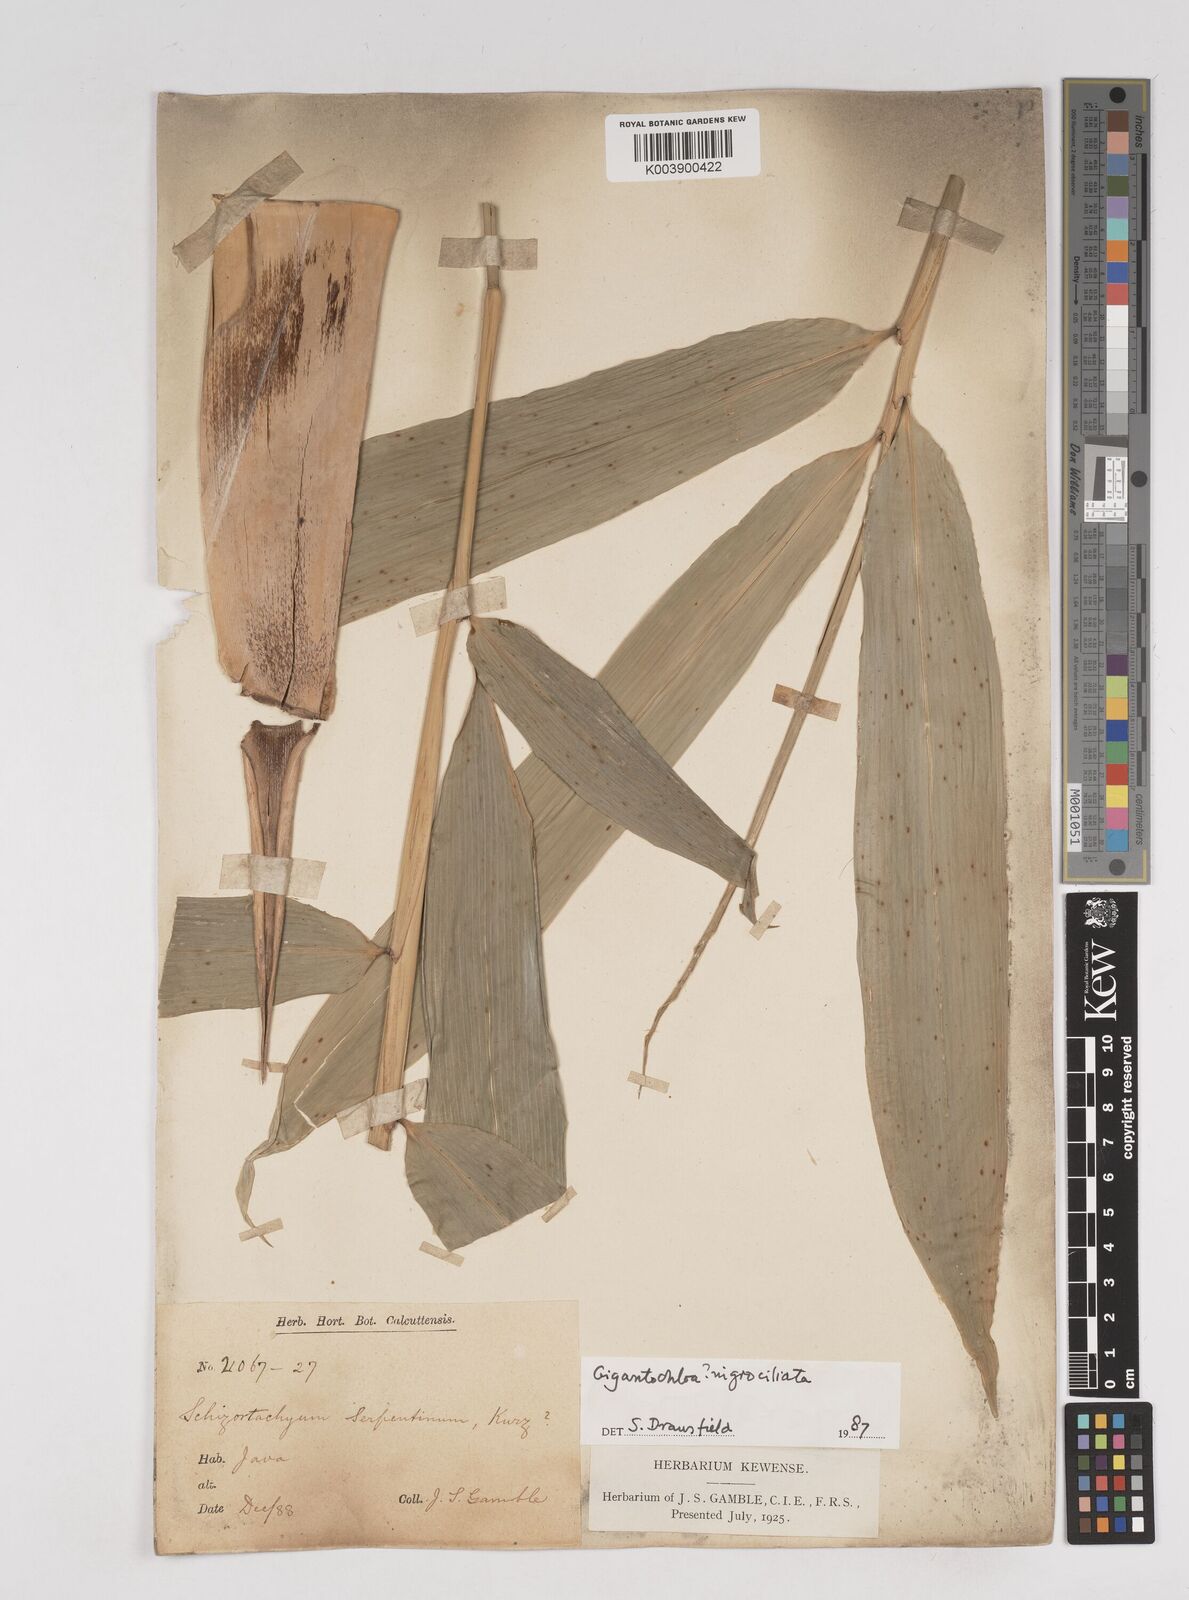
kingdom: Plantae
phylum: Tracheophyta
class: Liliopsida
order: Poales
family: Poaceae
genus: Gigantochloa
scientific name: Gigantochloa nigrociliata
